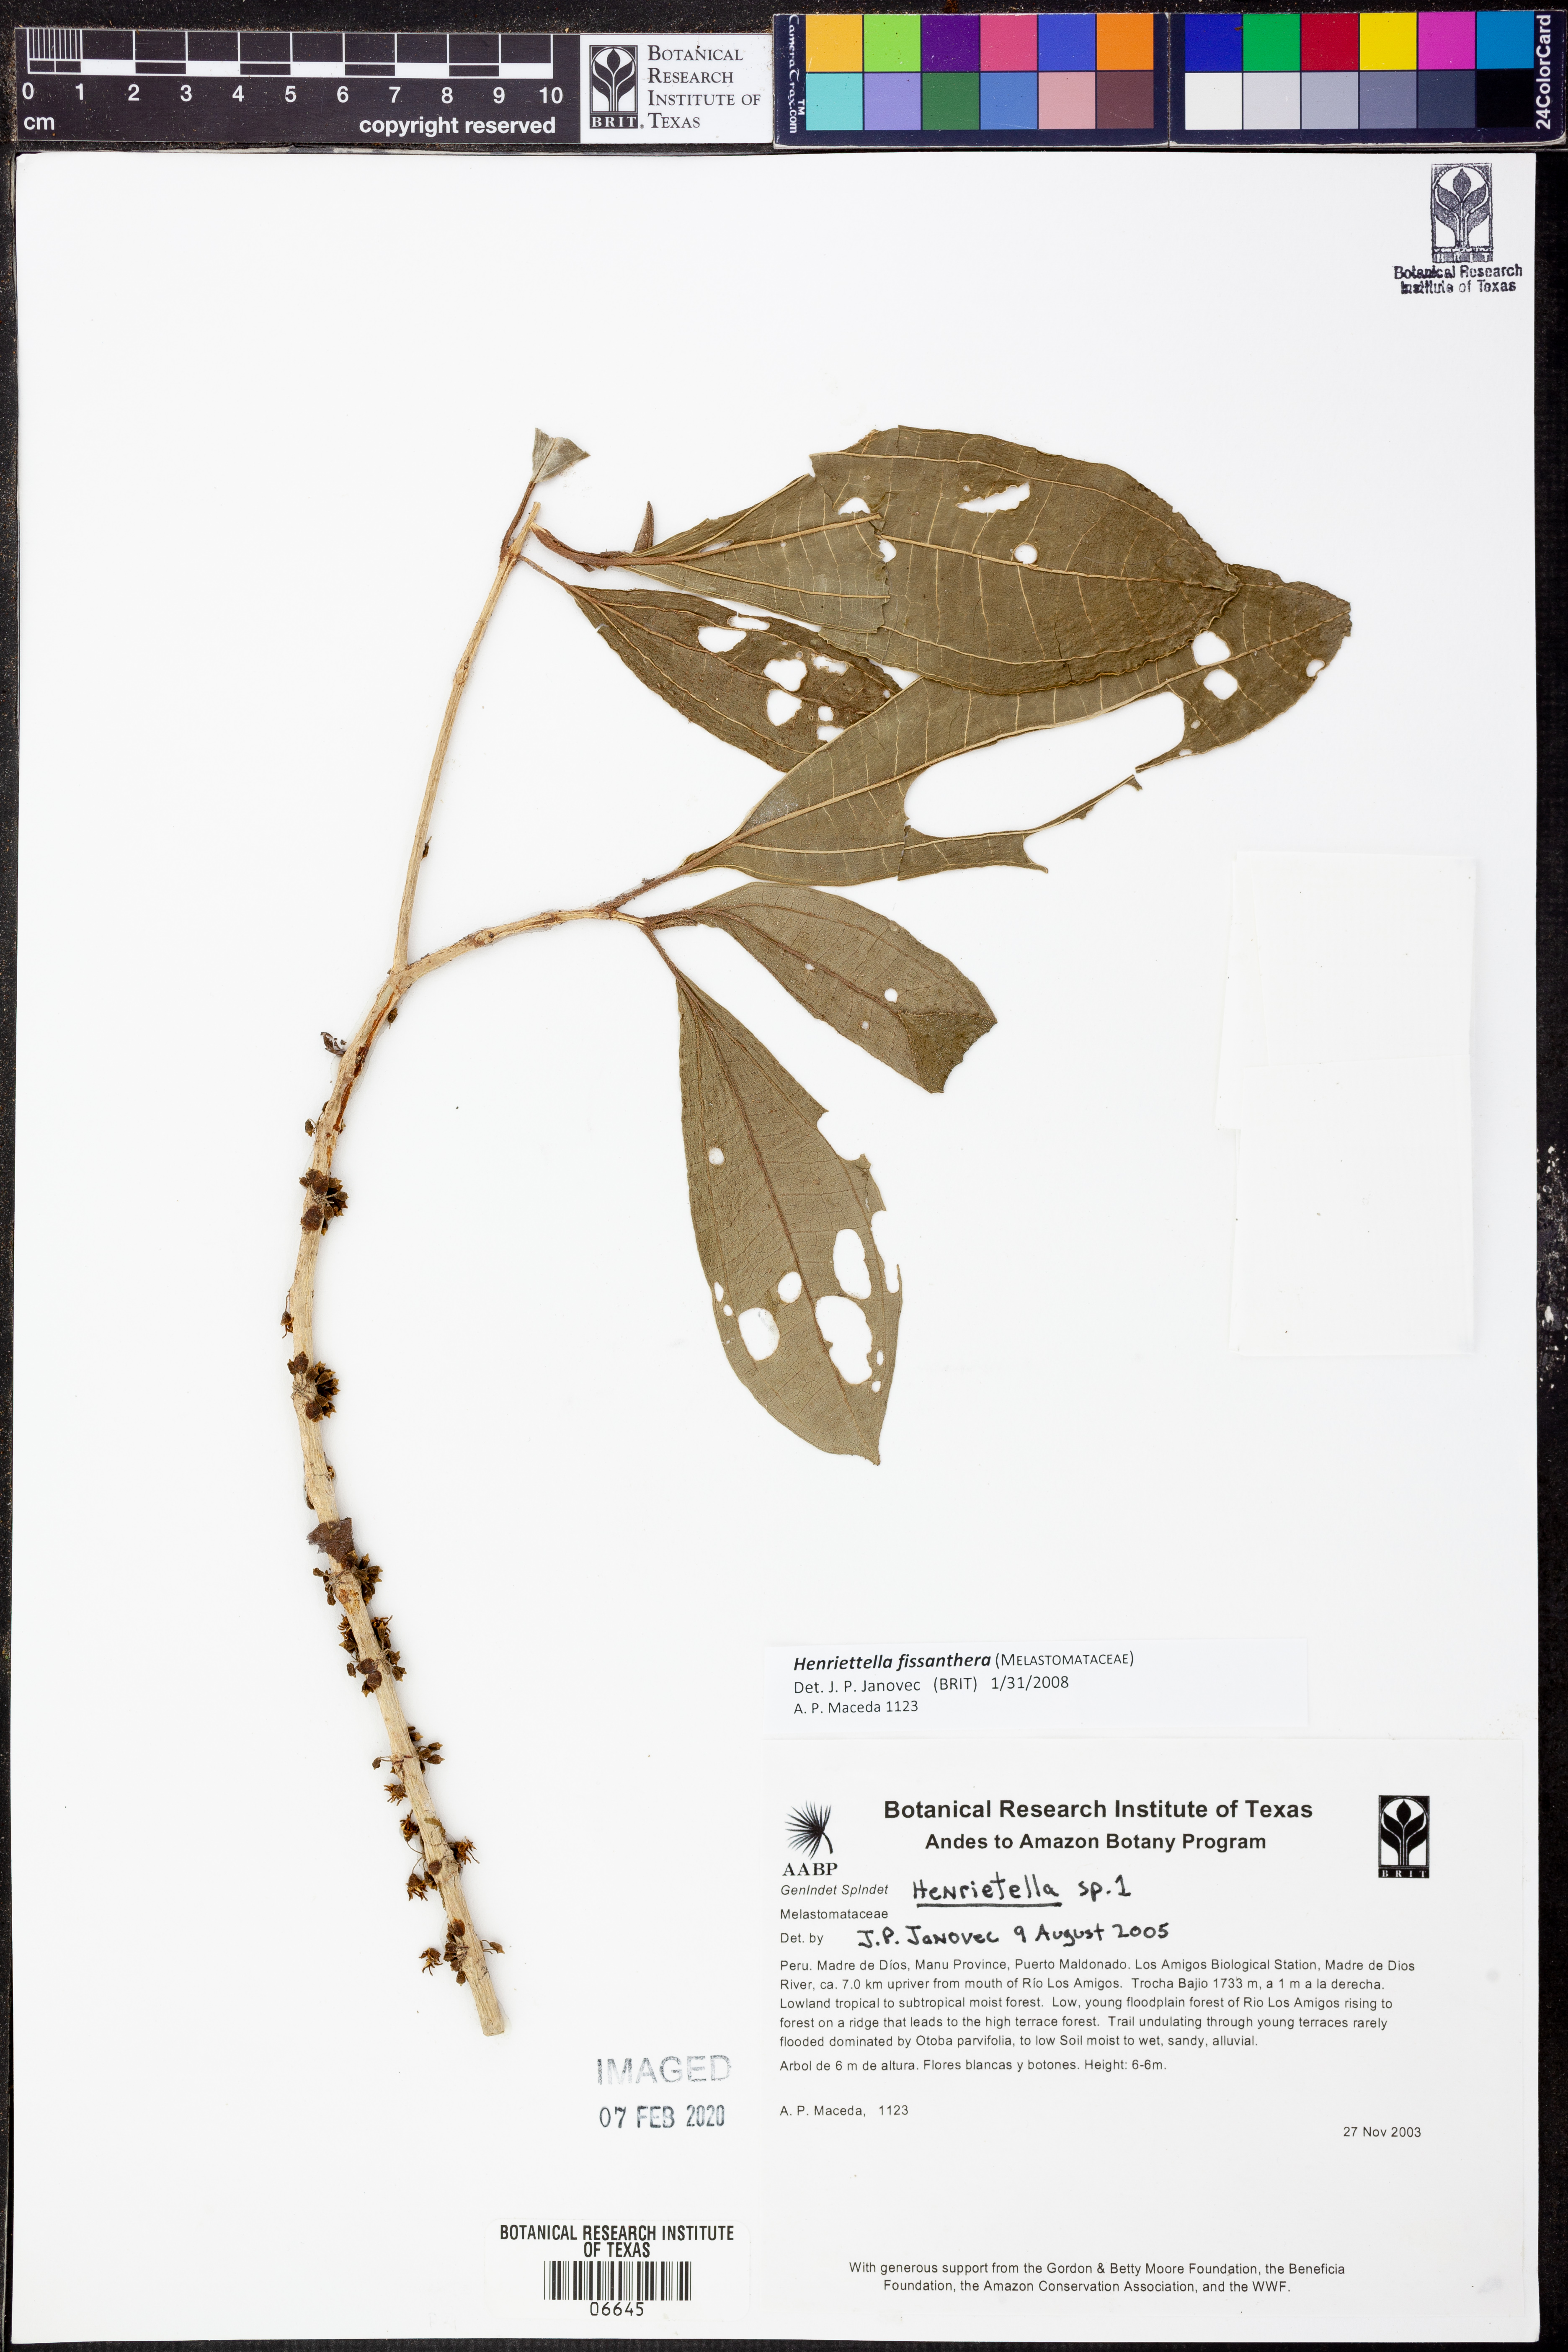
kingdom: Plantae
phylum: Tracheophyta
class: Magnoliopsida
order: Myrtales
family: Melastomataceae
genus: Henriettea
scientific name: Henriettea fissanthera
